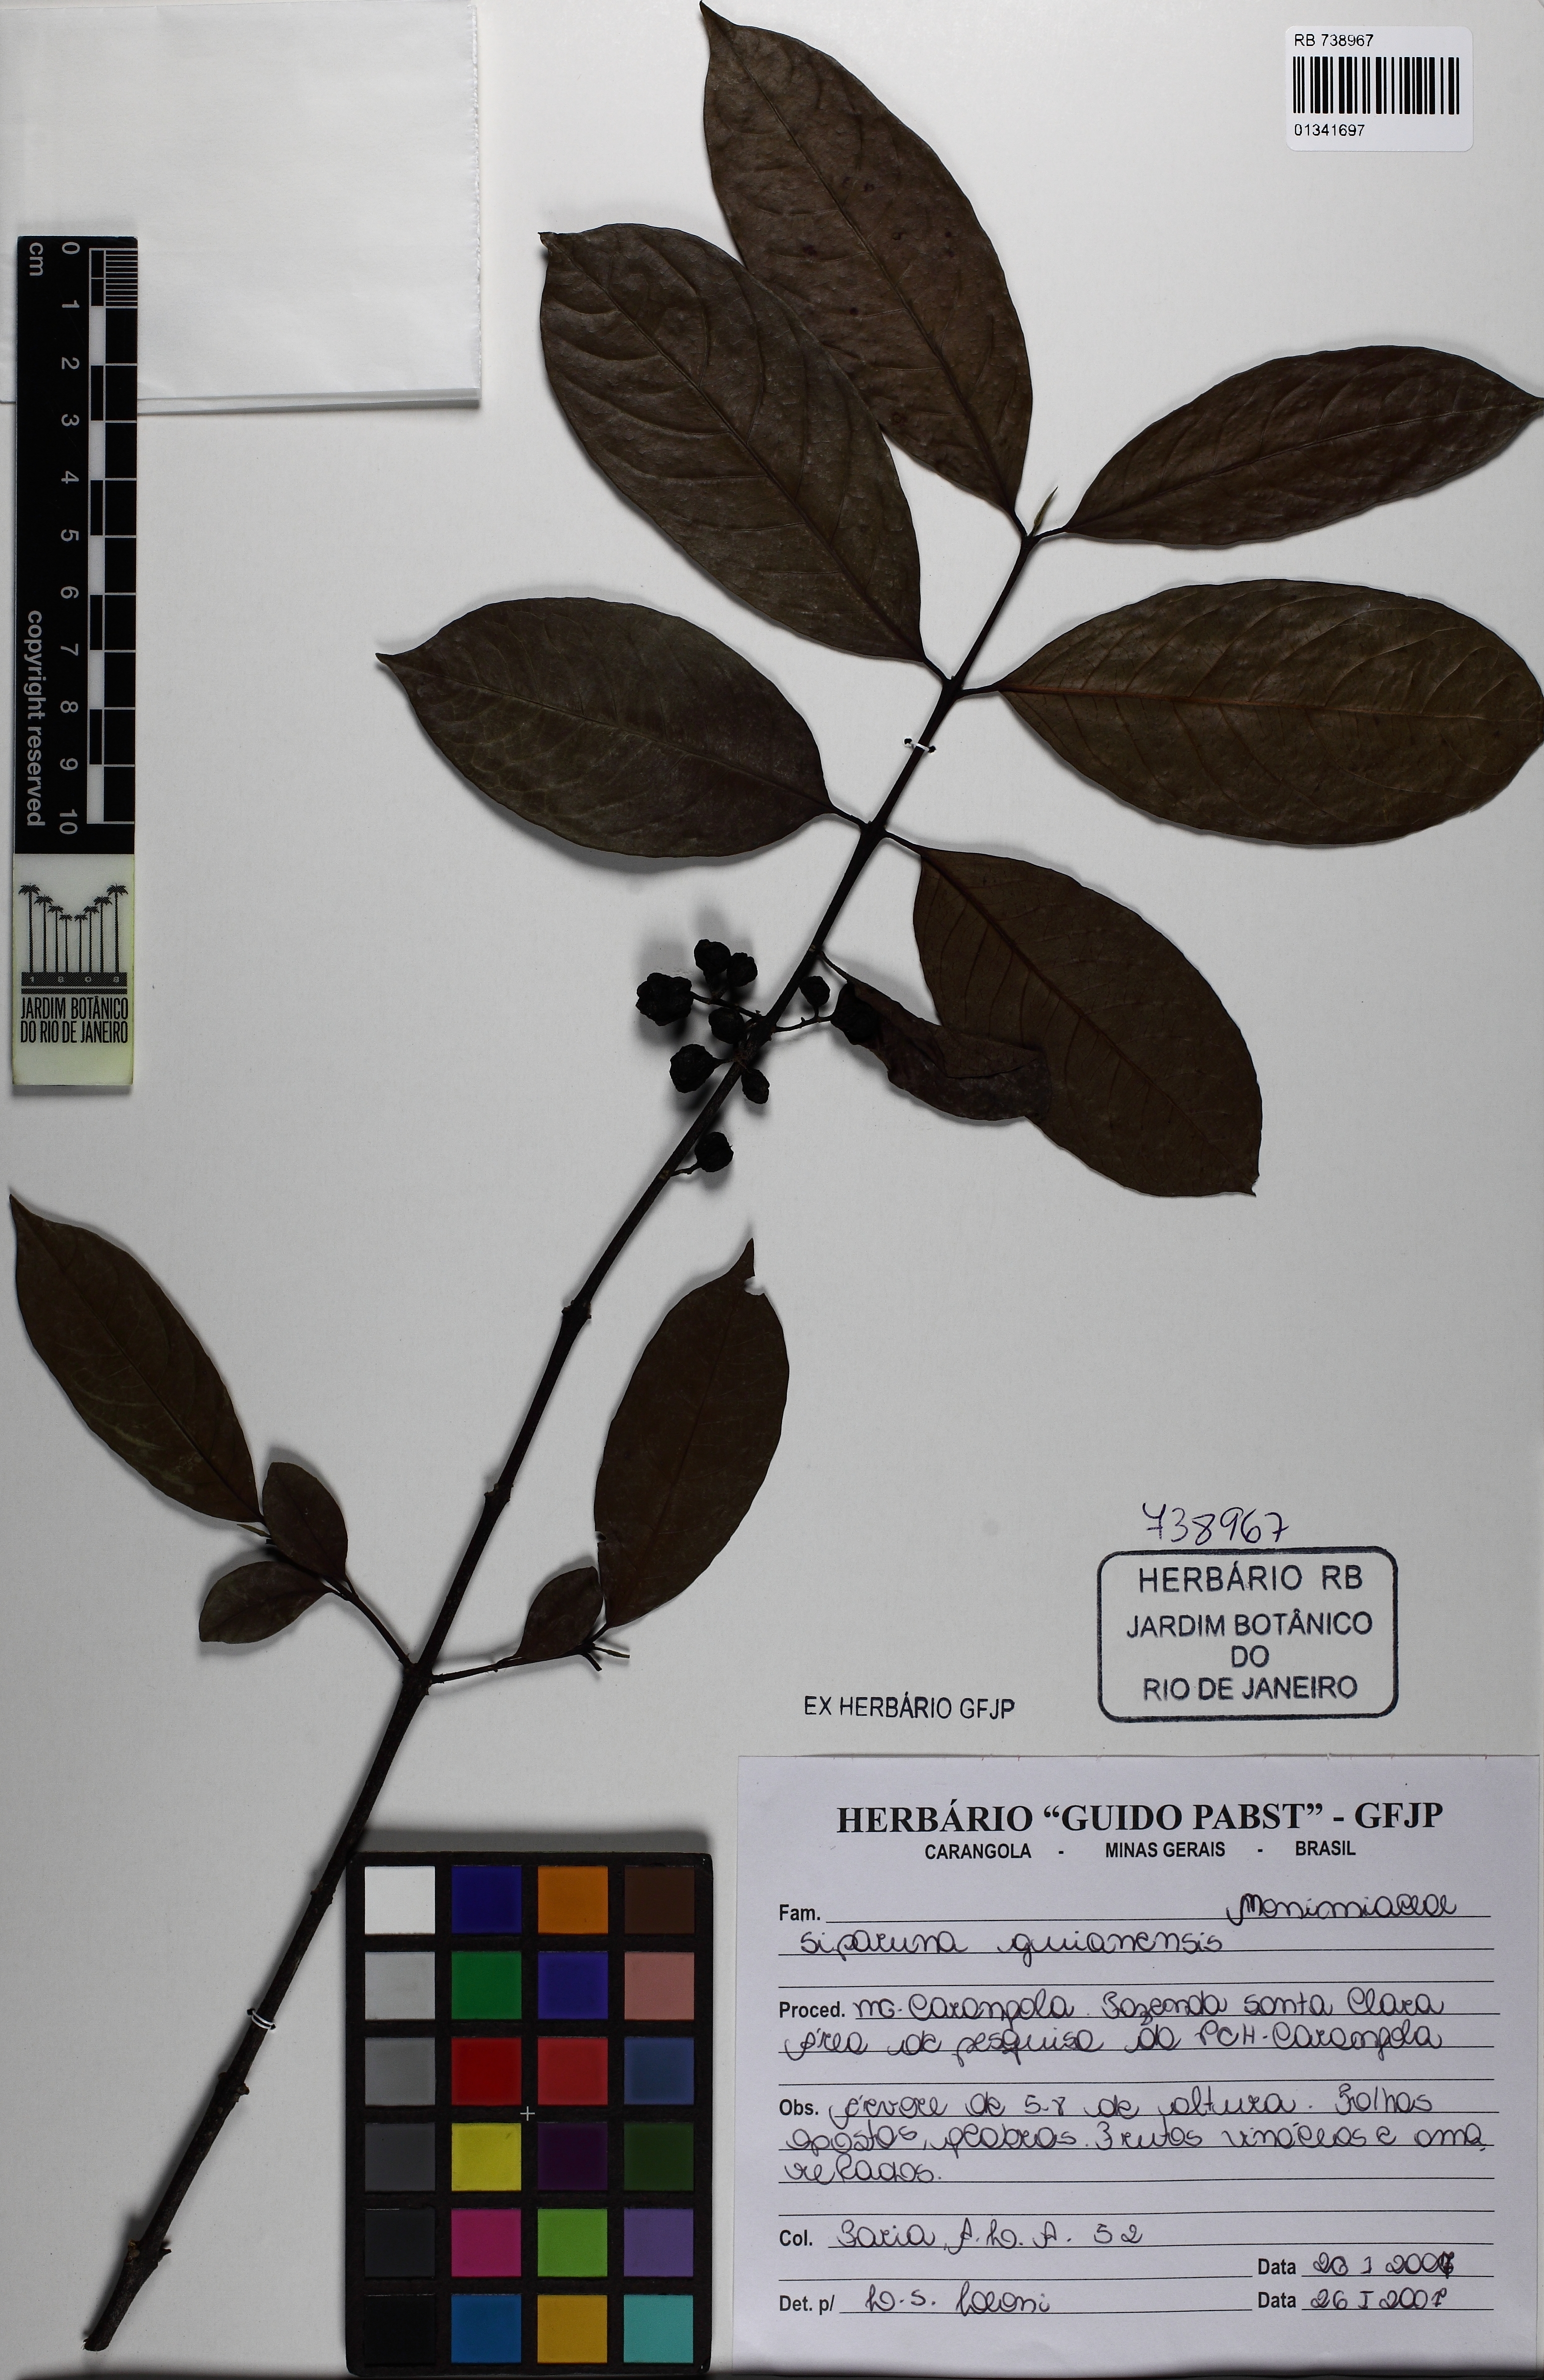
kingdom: Plantae
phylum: Tracheophyta
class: Magnoliopsida
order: Laurales
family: Siparunaceae
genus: Siparuna
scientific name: Siparuna guianensis
